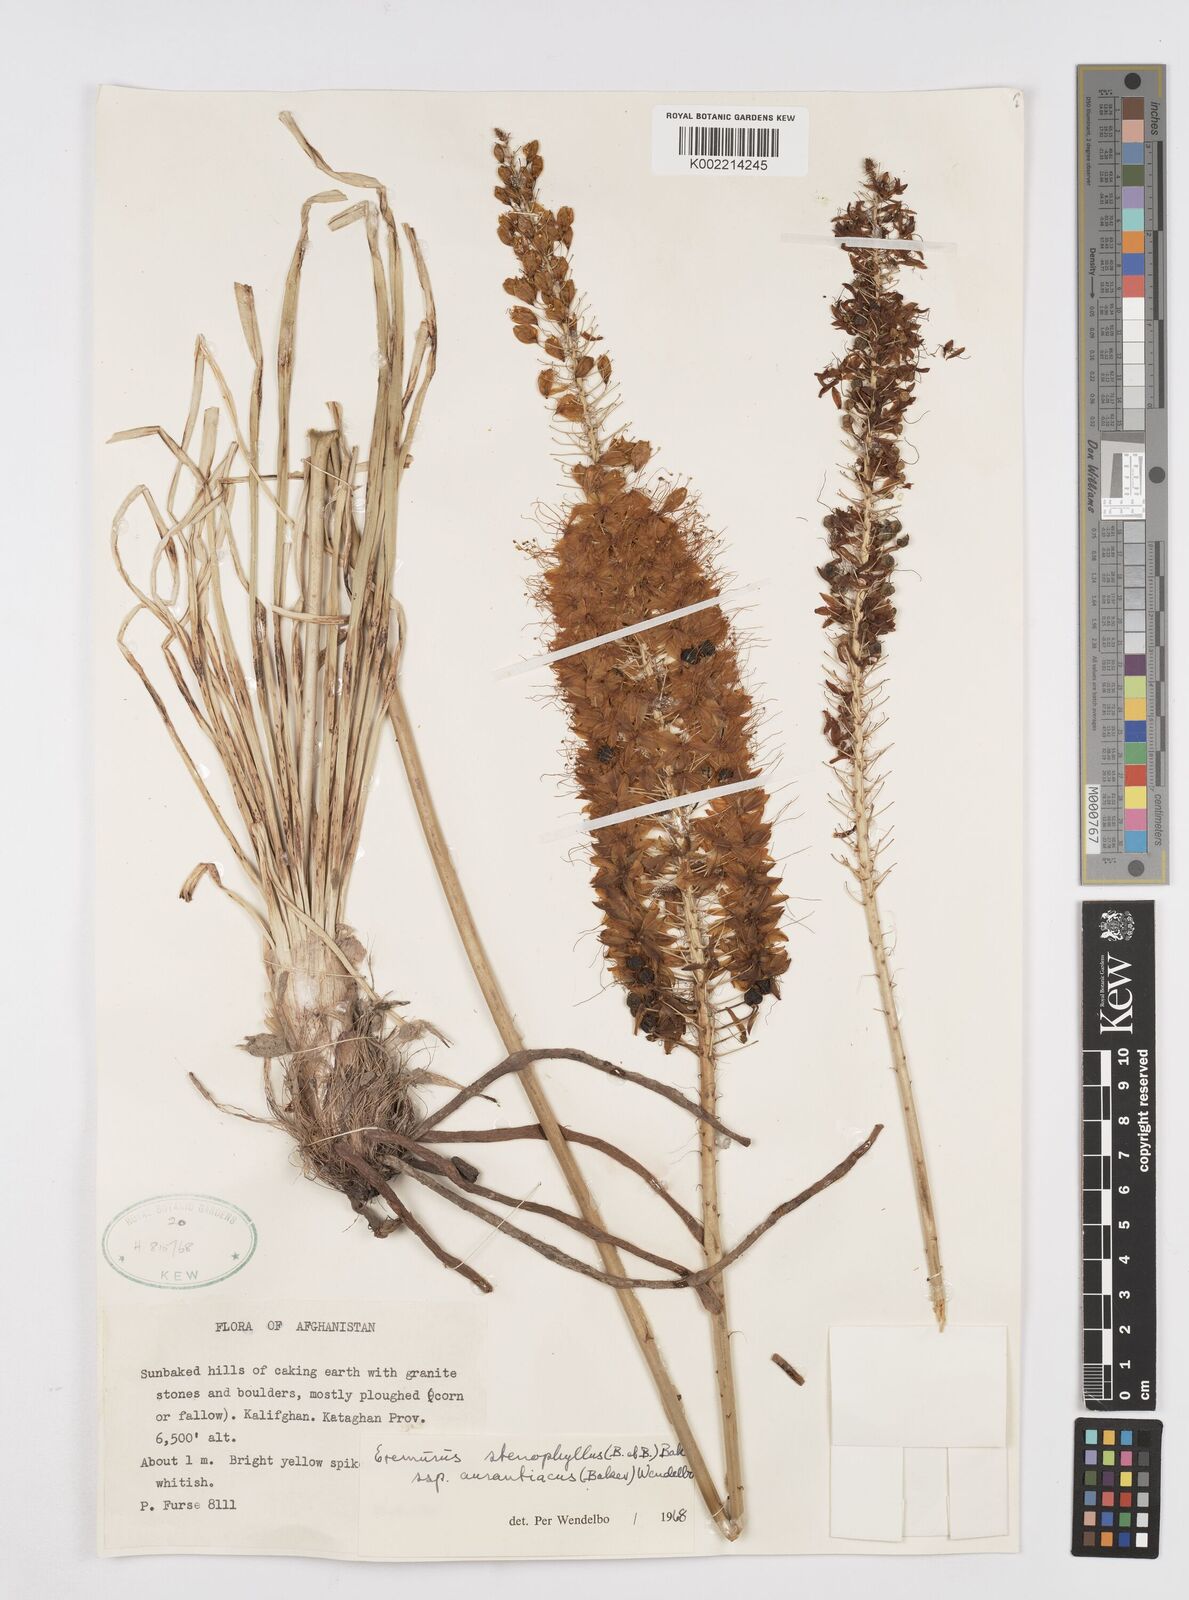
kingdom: Plantae
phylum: Tracheophyta
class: Liliopsida
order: Asparagales
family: Asphodelaceae
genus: Eremurus
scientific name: Eremurus stenophyllus
